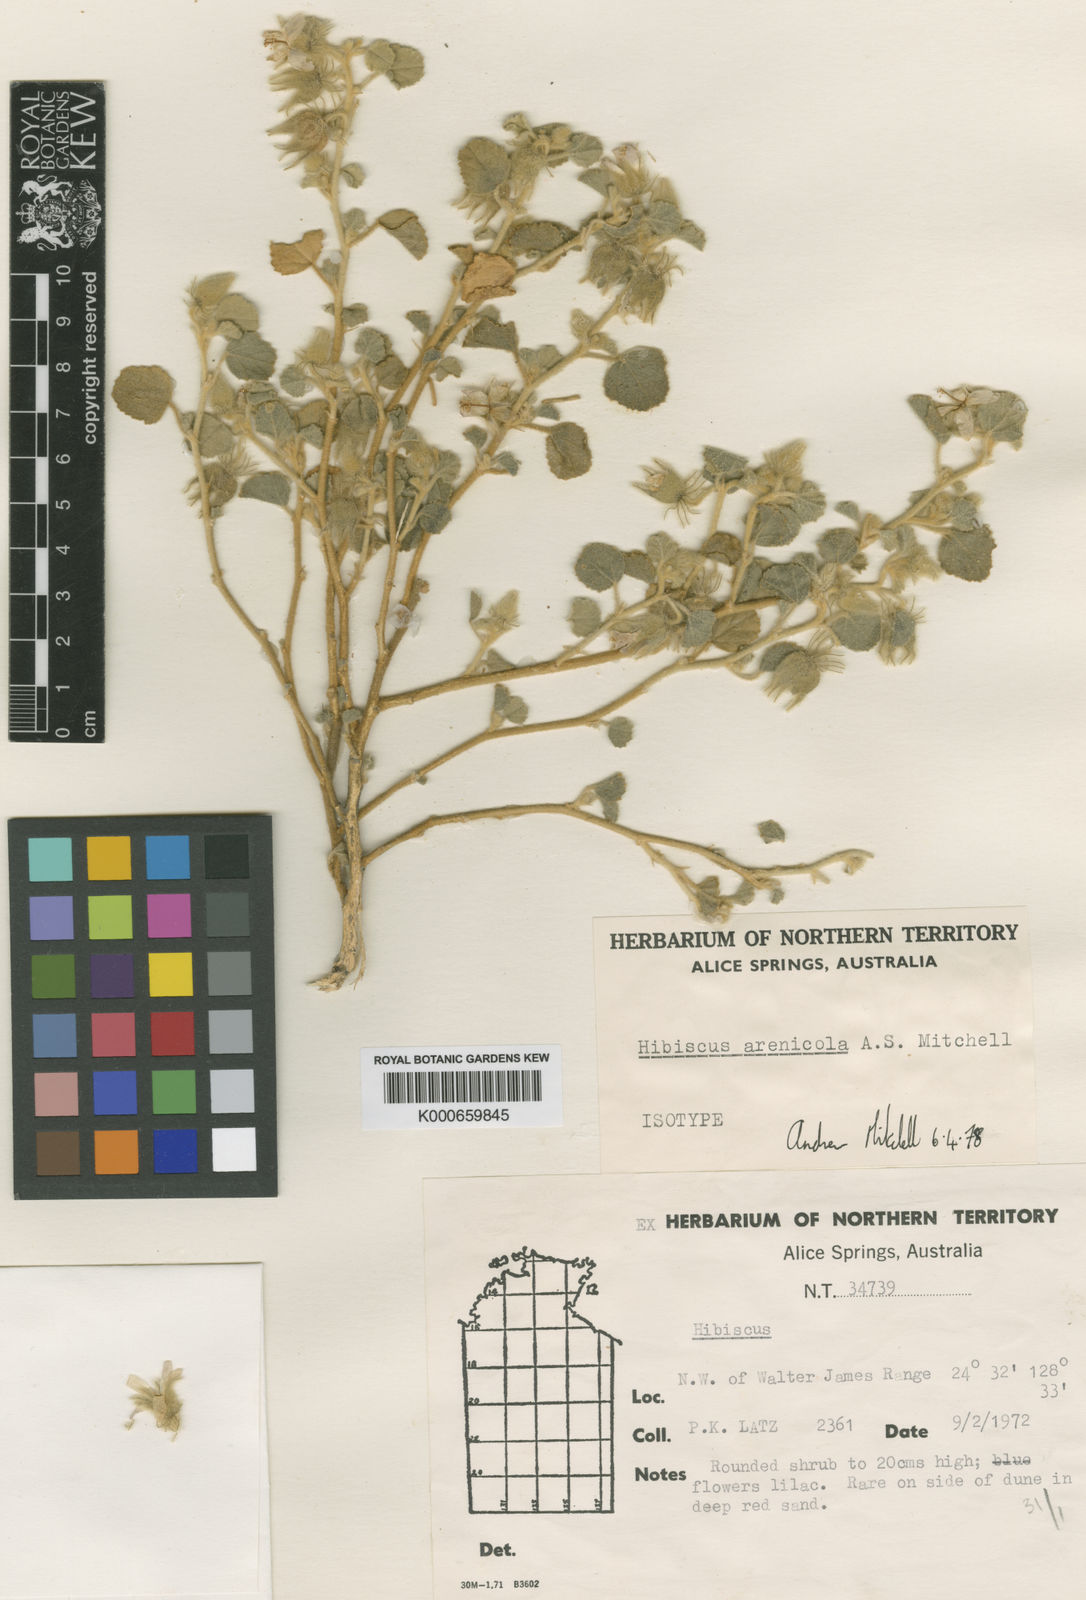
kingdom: Plantae
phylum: Tracheophyta
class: Magnoliopsida
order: Malvales
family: Malvaceae
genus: Hibiscus
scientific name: Hibiscus arenicola
